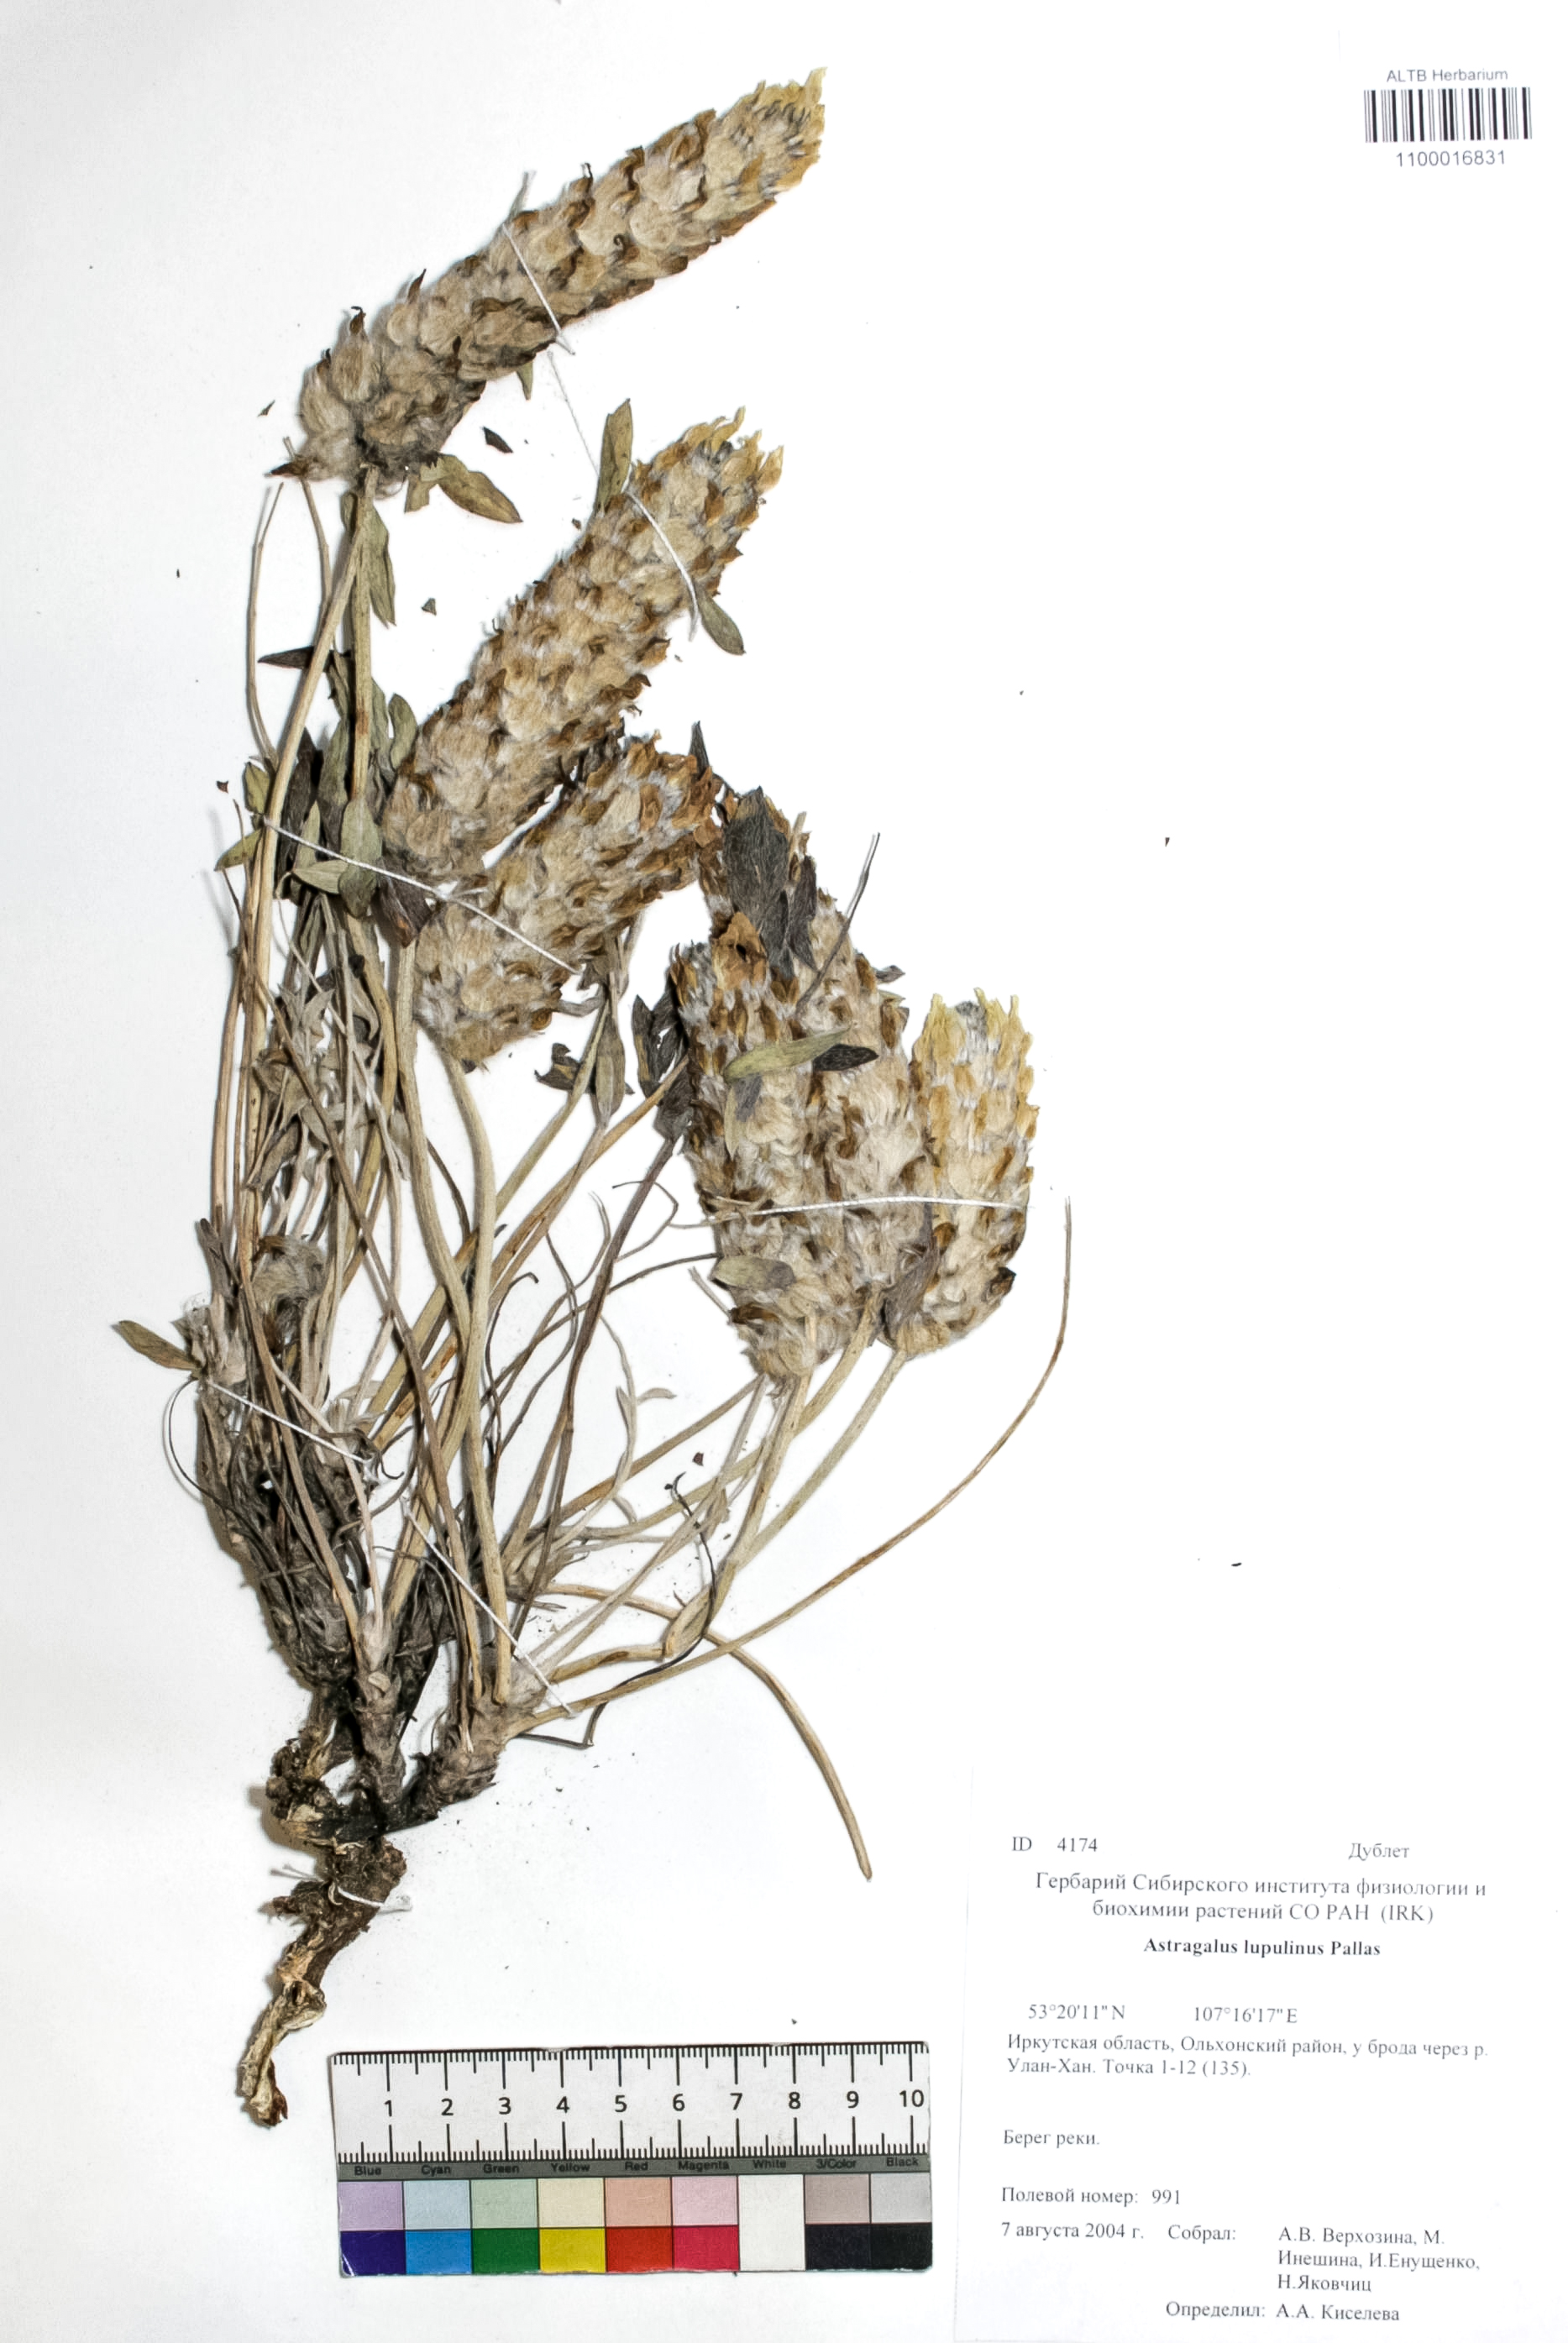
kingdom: Plantae
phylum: Tracheophyta
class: Magnoliopsida
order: Fabales
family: Fabaceae
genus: Astragalus
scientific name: Astragalus lupulinus
